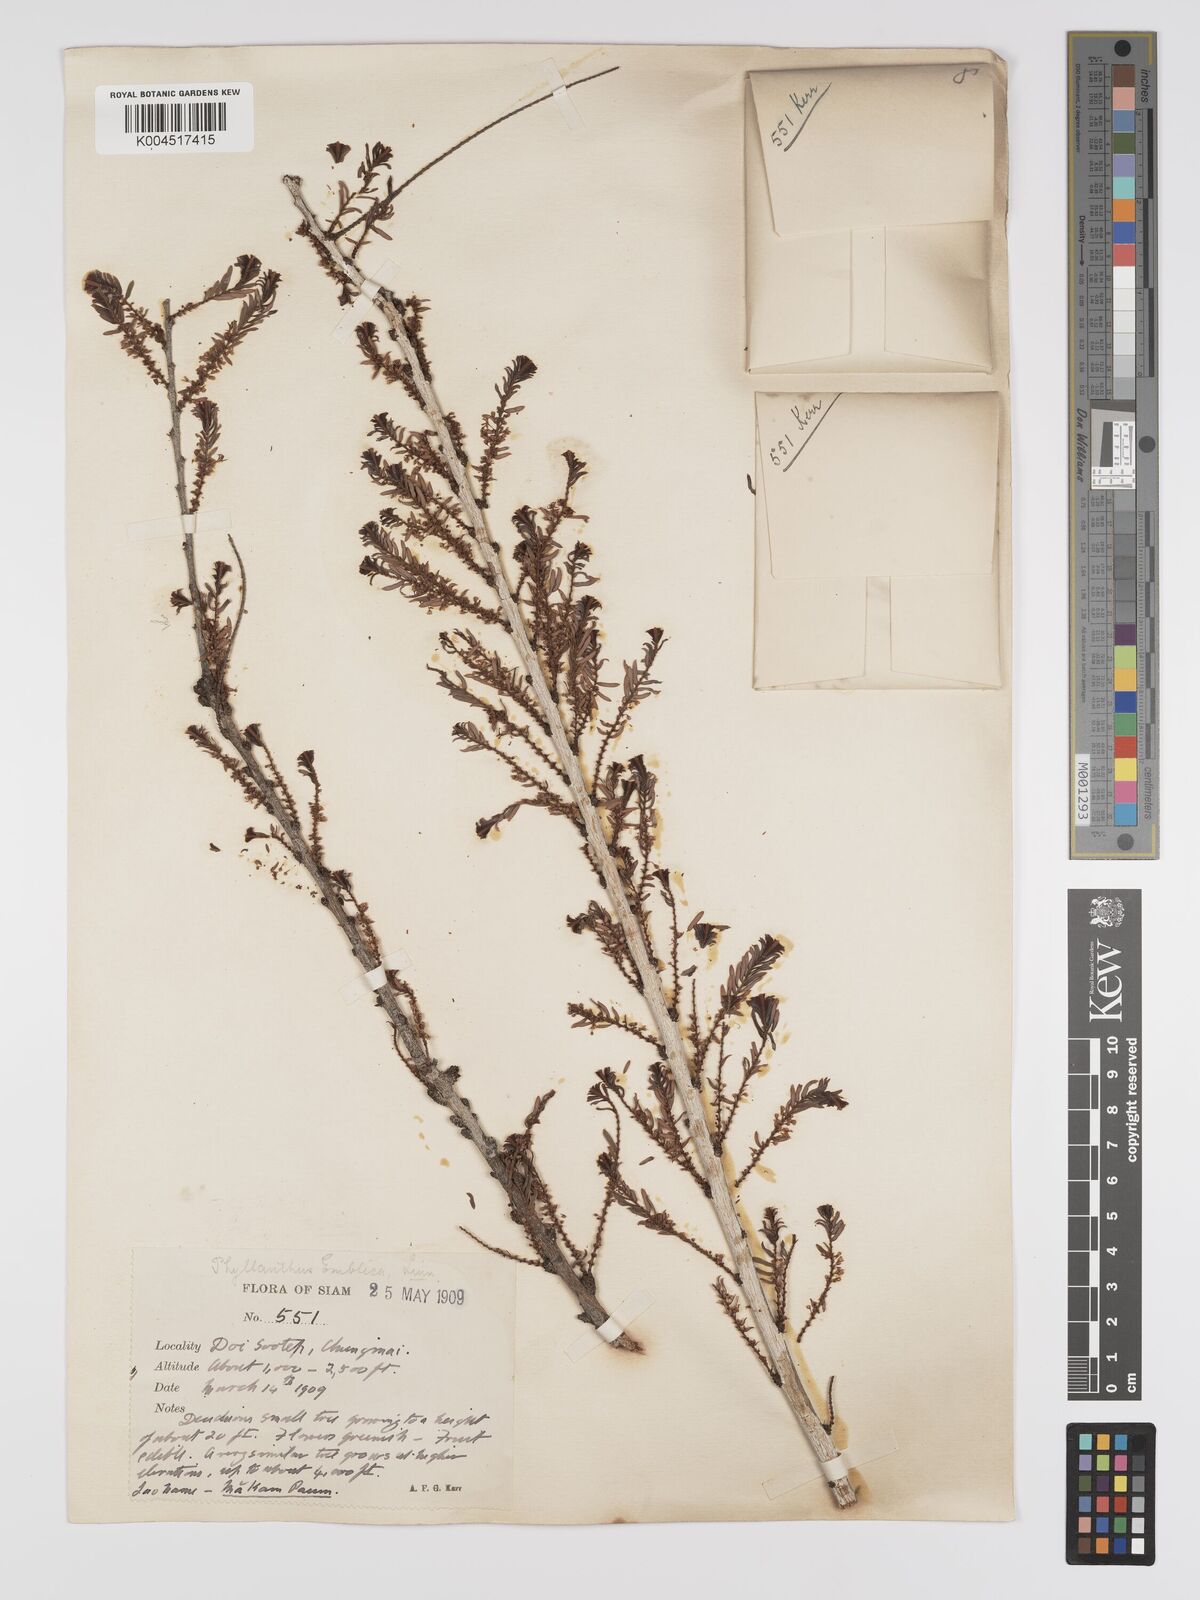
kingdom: Plantae
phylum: Tracheophyta
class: Magnoliopsida
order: Malpighiales
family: Phyllanthaceae
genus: Phyllanthus
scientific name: Phyllanthus emblica
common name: Indian gooseberry
